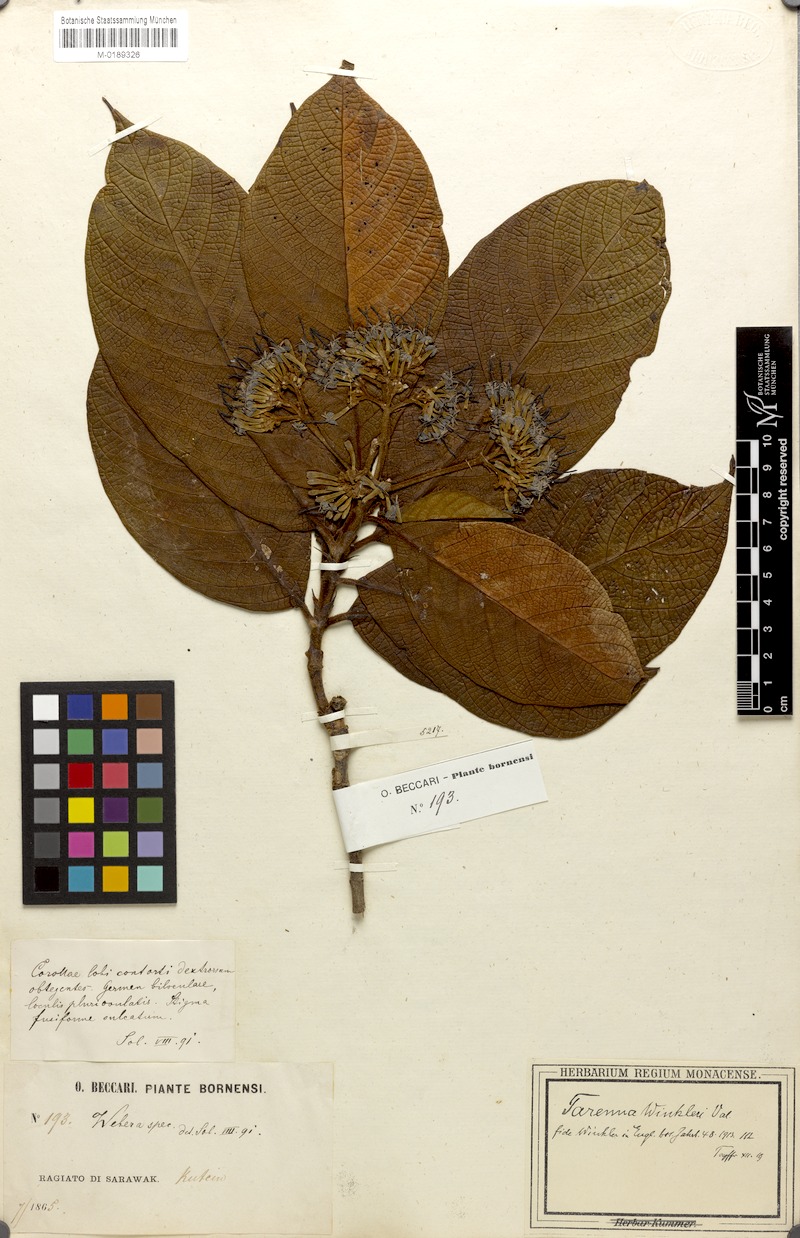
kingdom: Plantae
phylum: Tracheophyta
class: Magnoliopsida
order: Gentianales
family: Rubiaceae
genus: Tarenna
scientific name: Tarenna winkleri
